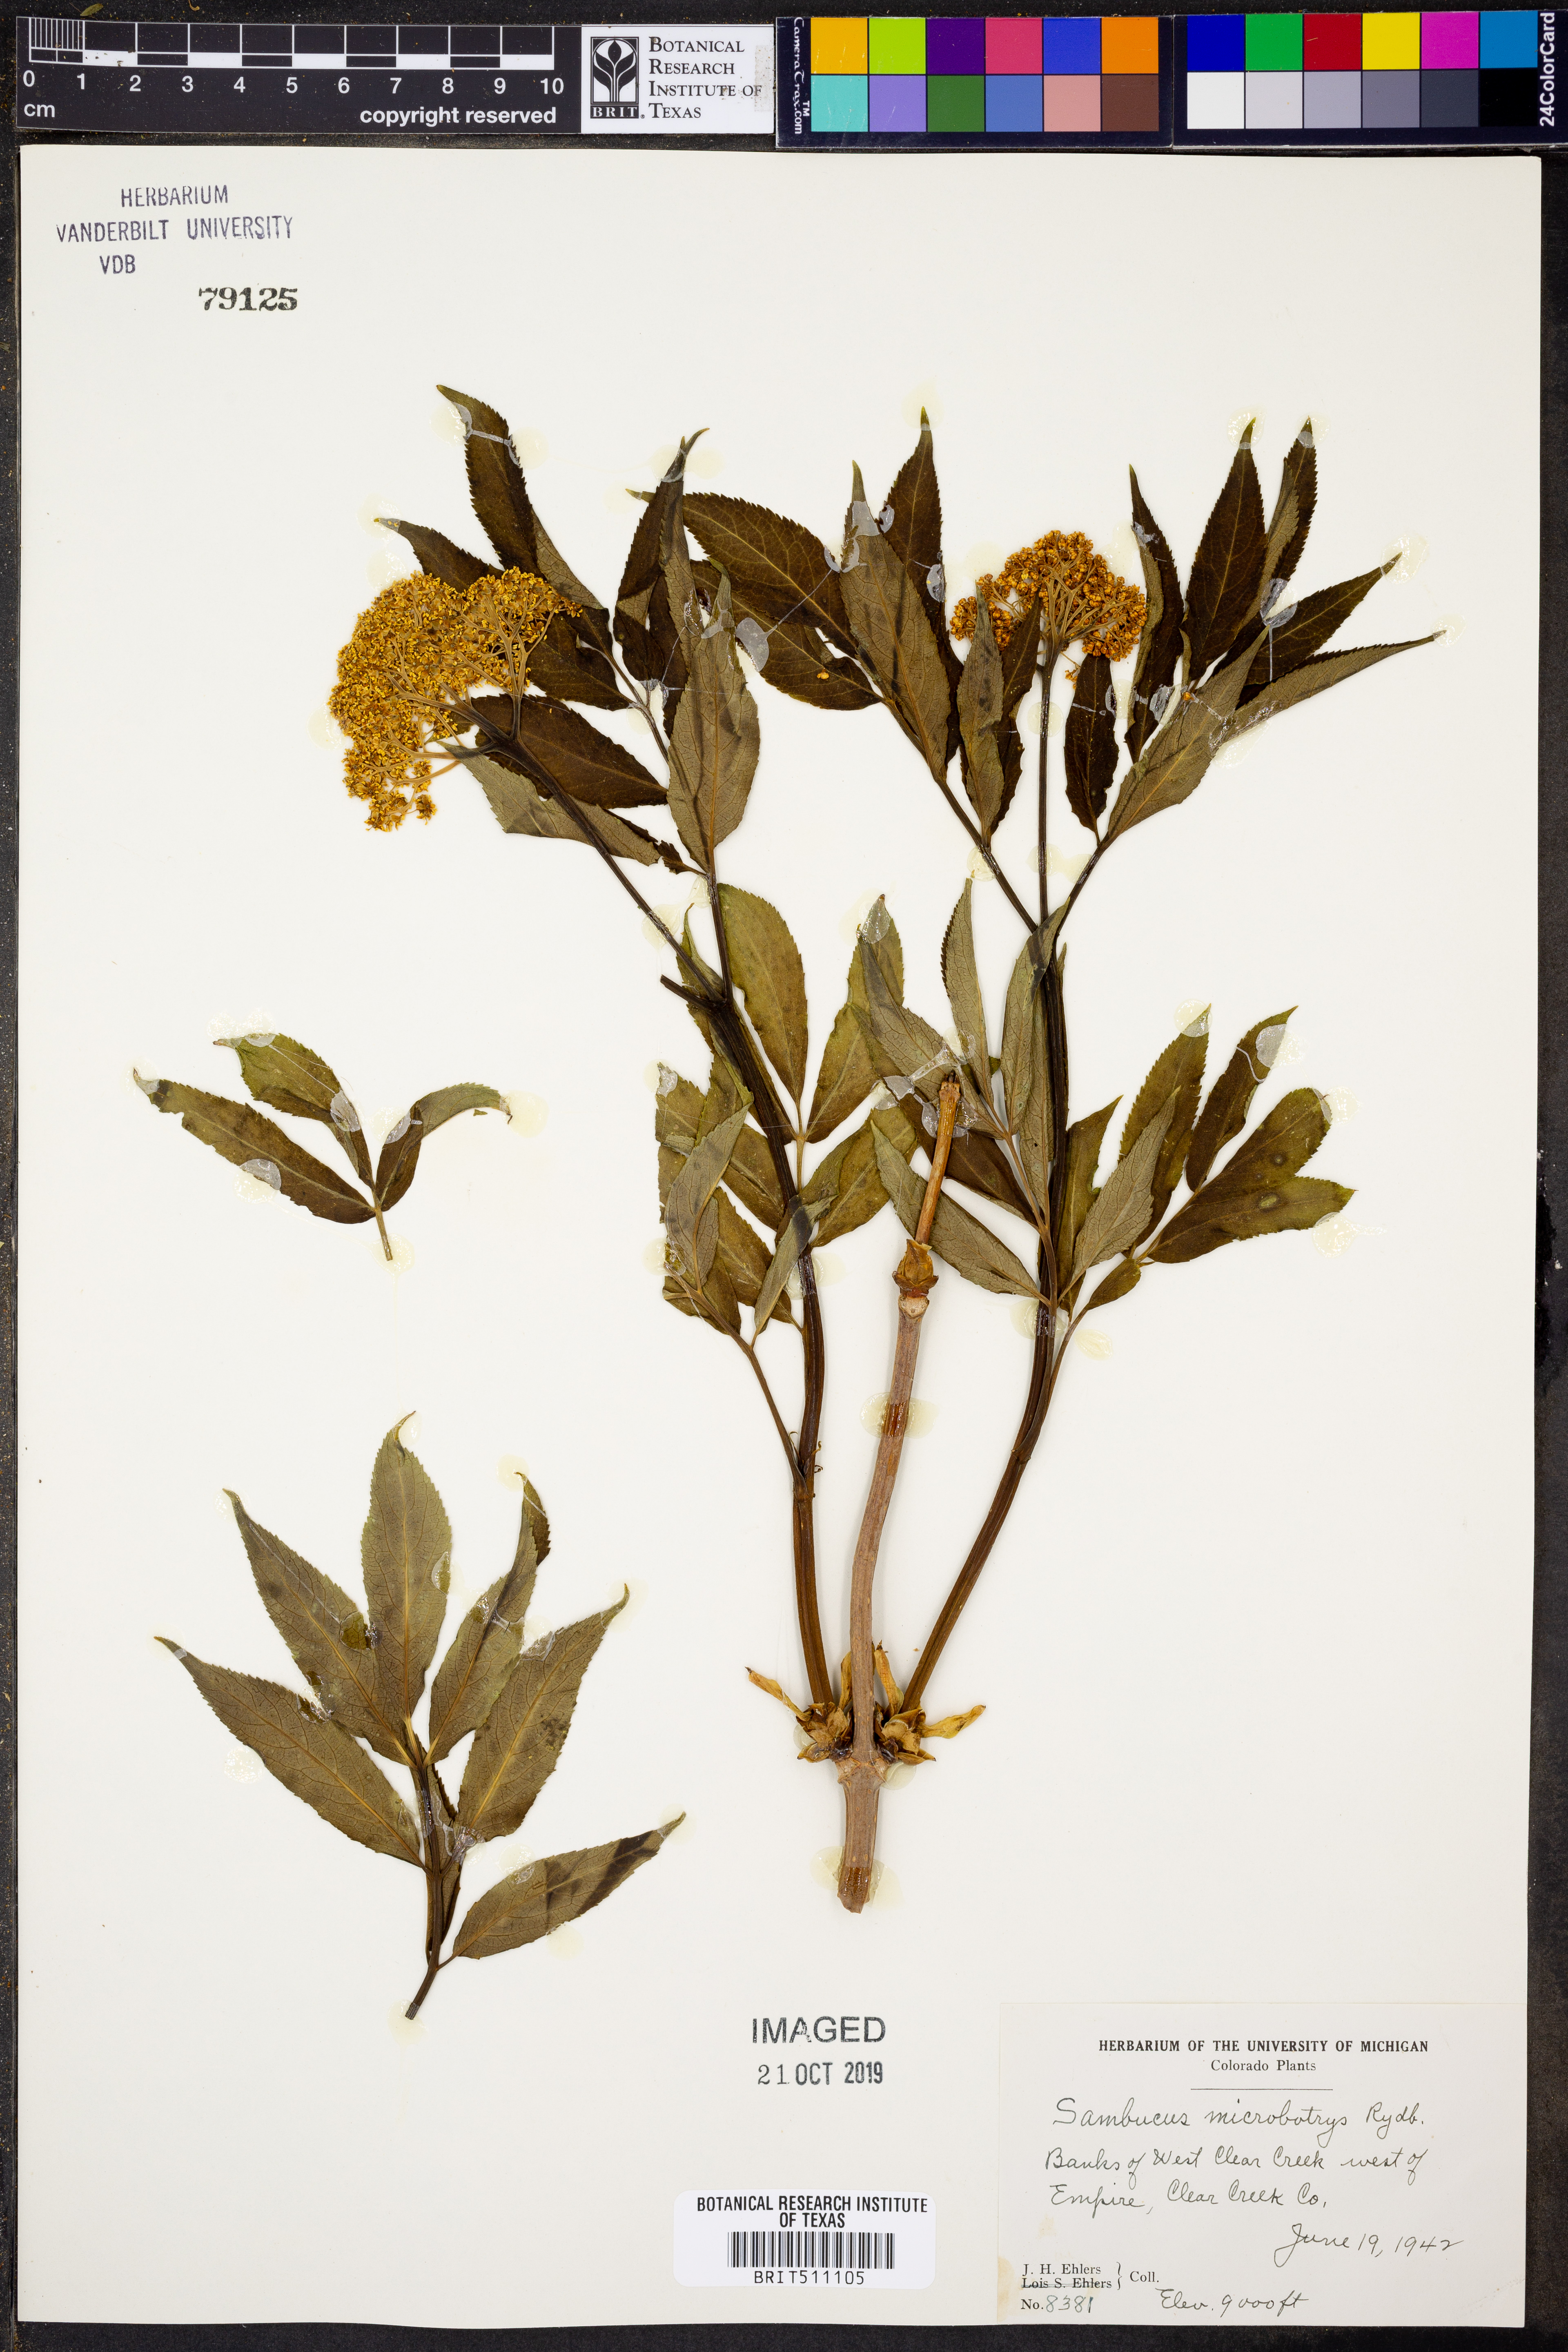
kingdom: Plantae
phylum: Tracheophyta
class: Magnoliopsida
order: Dipsacales
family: Viburnaceae
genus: Sambucus
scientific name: Sambucus racemosa
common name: Red-berried elder
